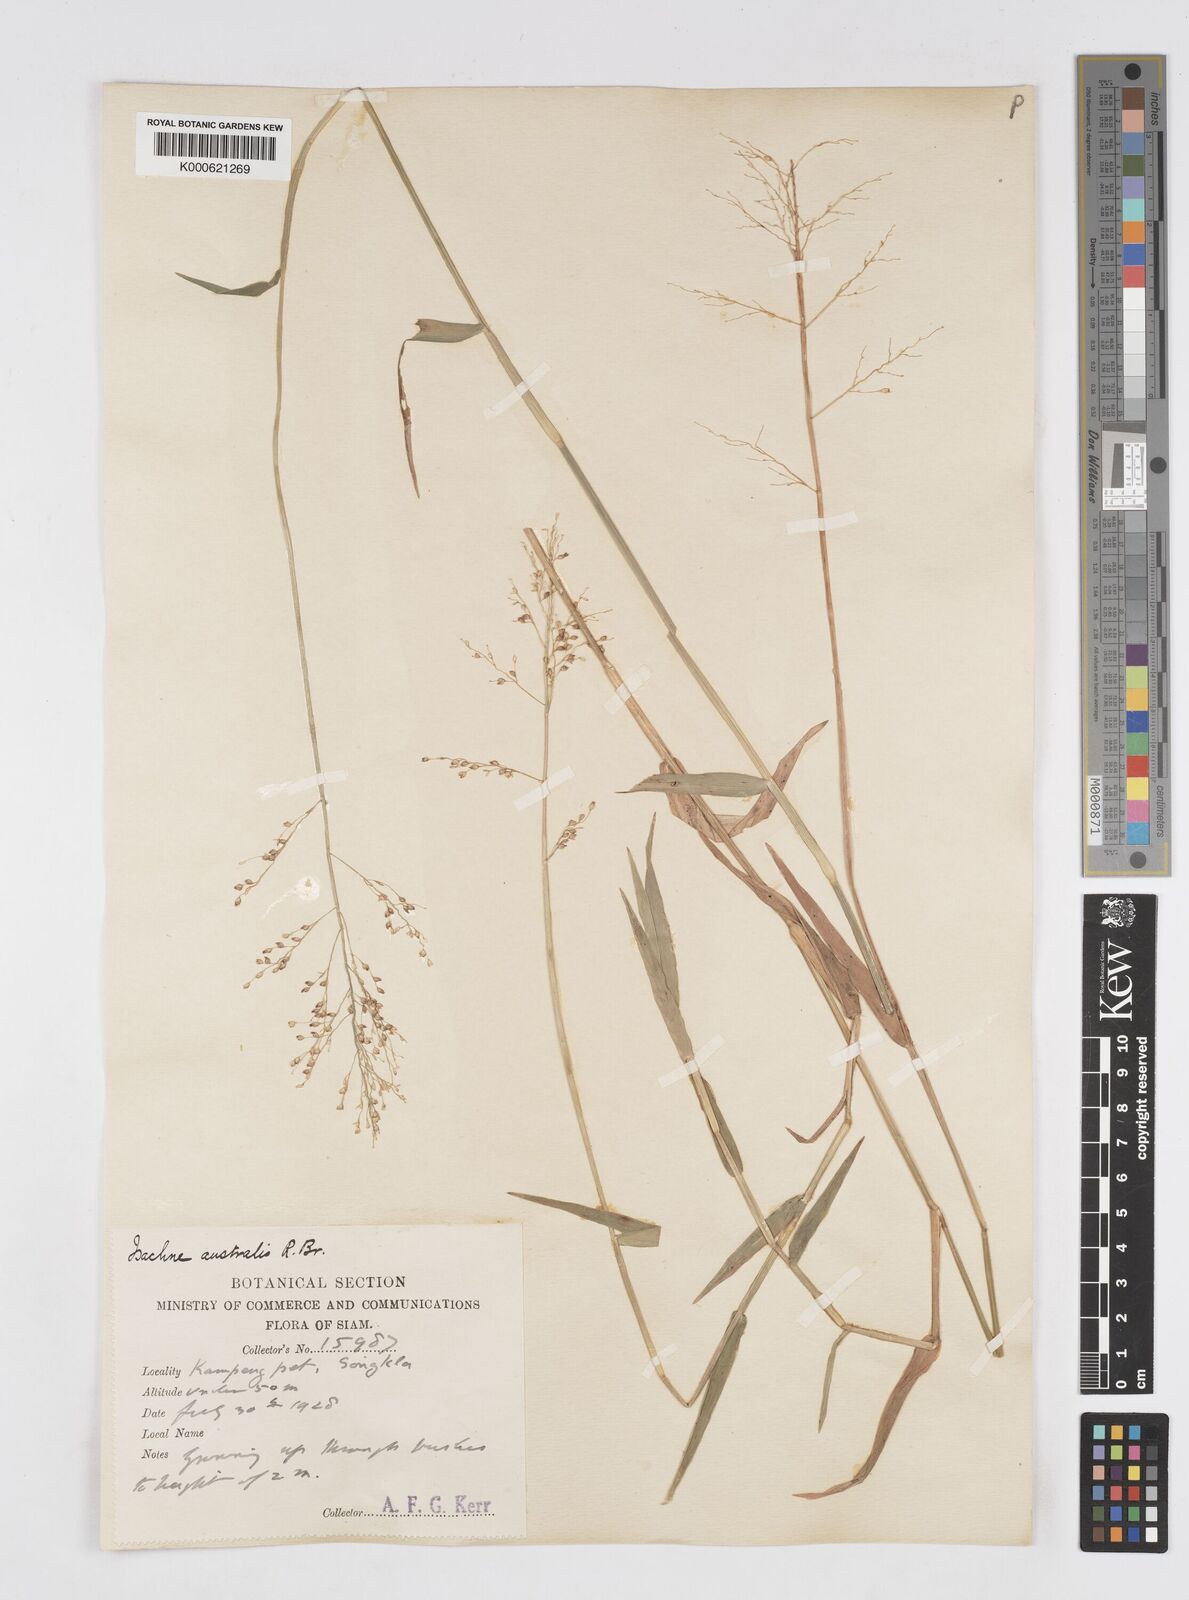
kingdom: Plantae
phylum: Tracheophyta
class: Liliopsida
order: Poales
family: Poaceae
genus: Isachne
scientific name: Isachne globosa
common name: Swamp millet
